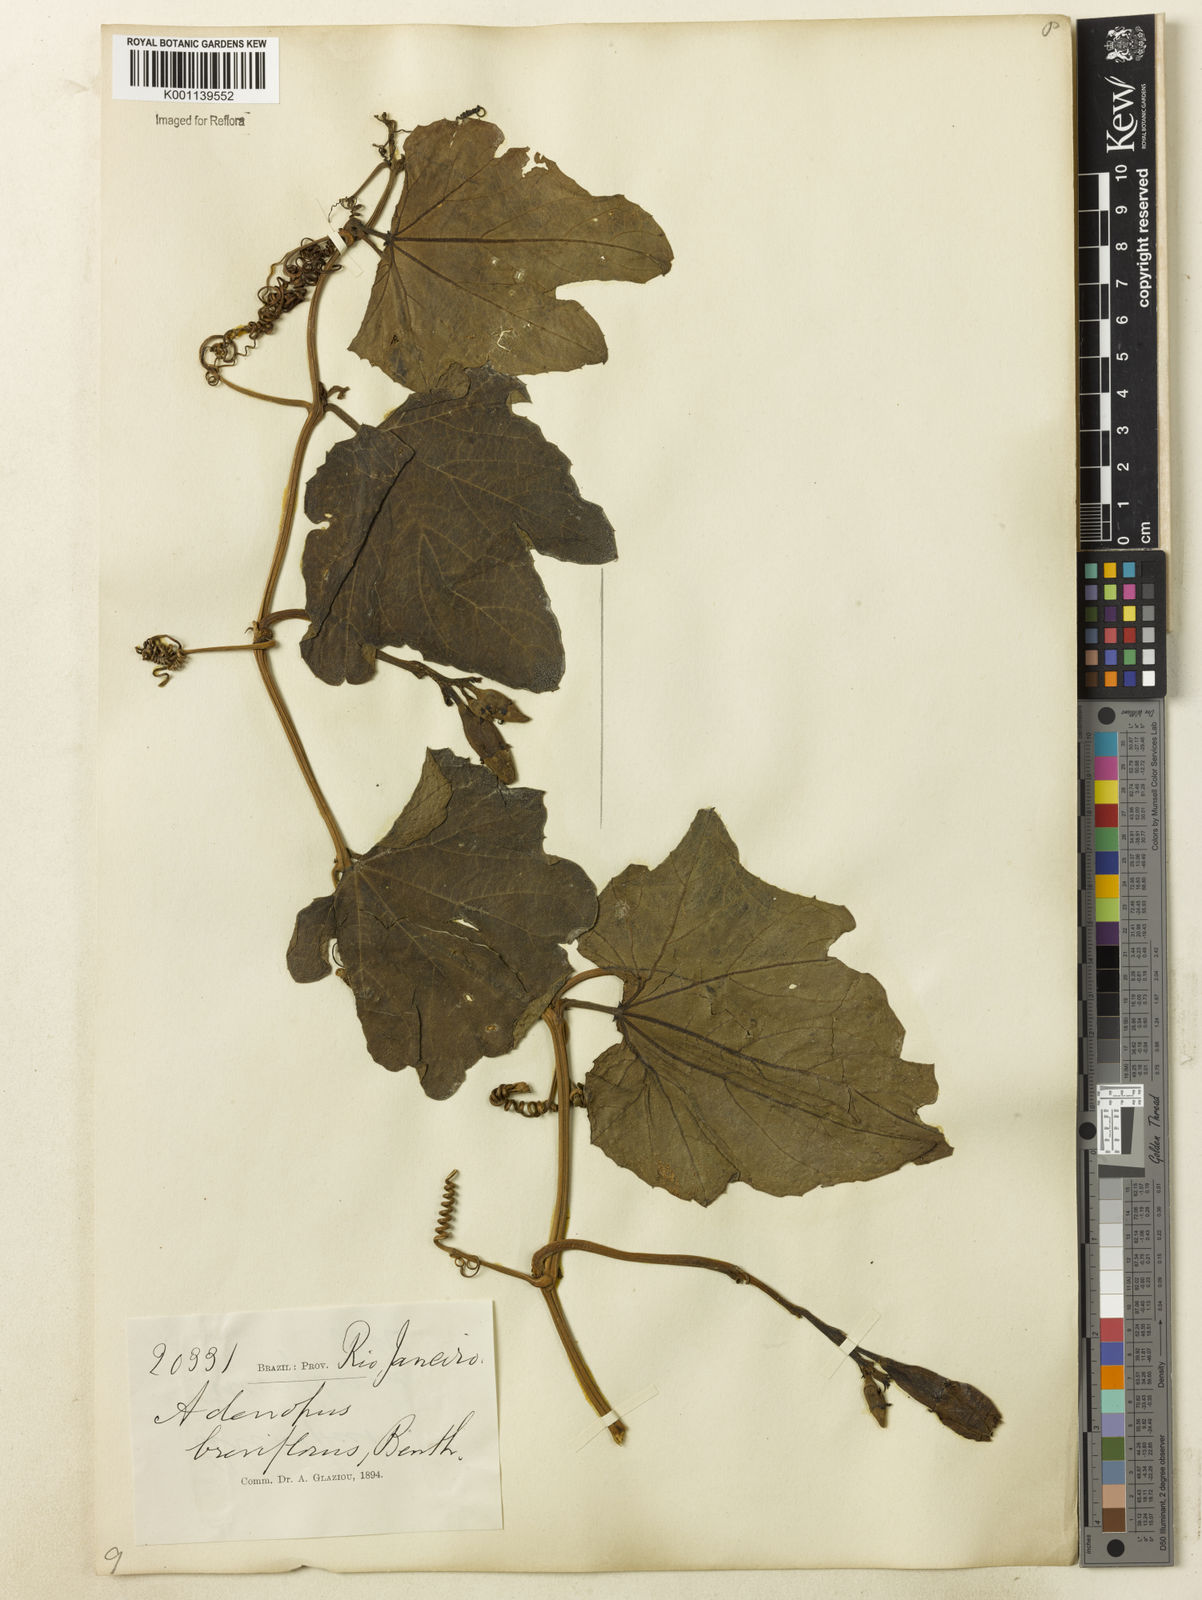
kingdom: Plantae
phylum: Tracheophyta
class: Magnoliopsida
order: Cucurbitales
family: Cucurbitaceae
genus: Lagenaria
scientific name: Lagenaria breviflora
